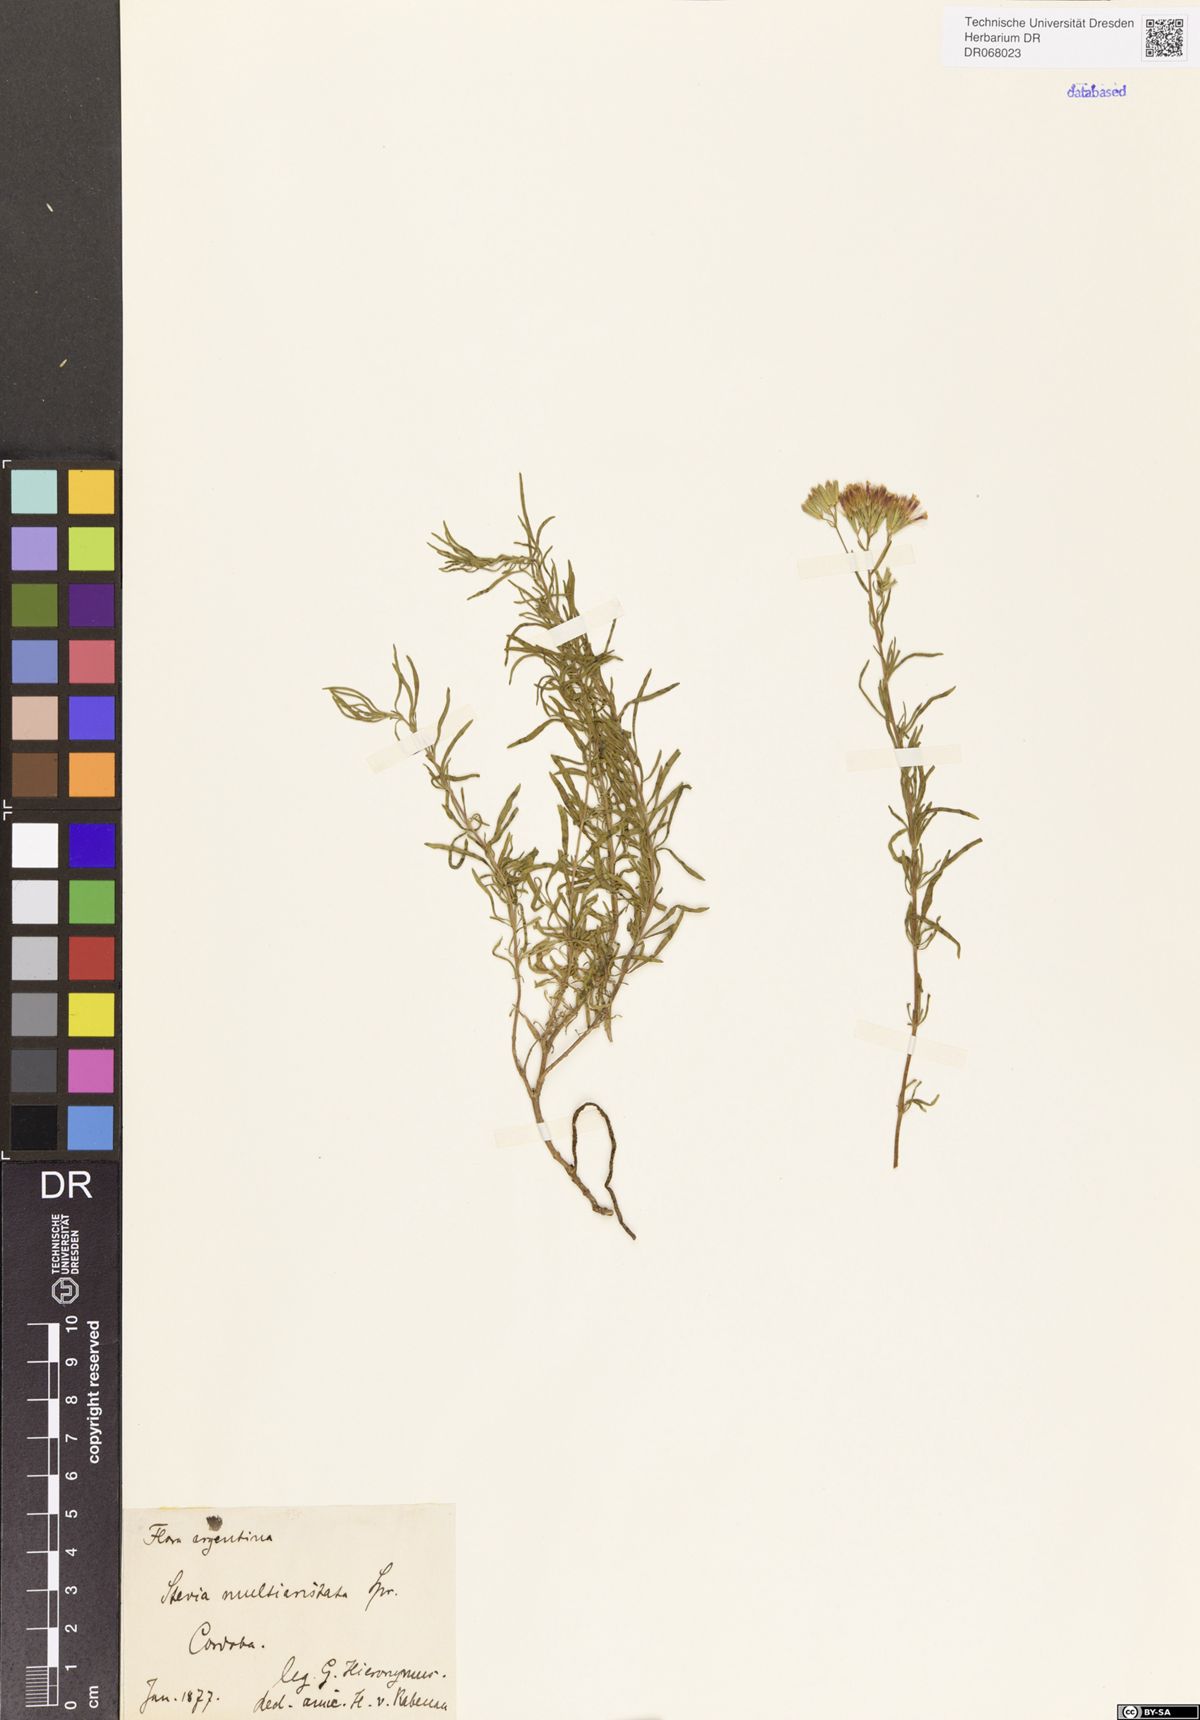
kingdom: Plantae
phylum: Tracheophyta
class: Magnoliopsida
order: Asterales
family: Asteraceae
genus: Stevia
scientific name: Stevia multiaristata
